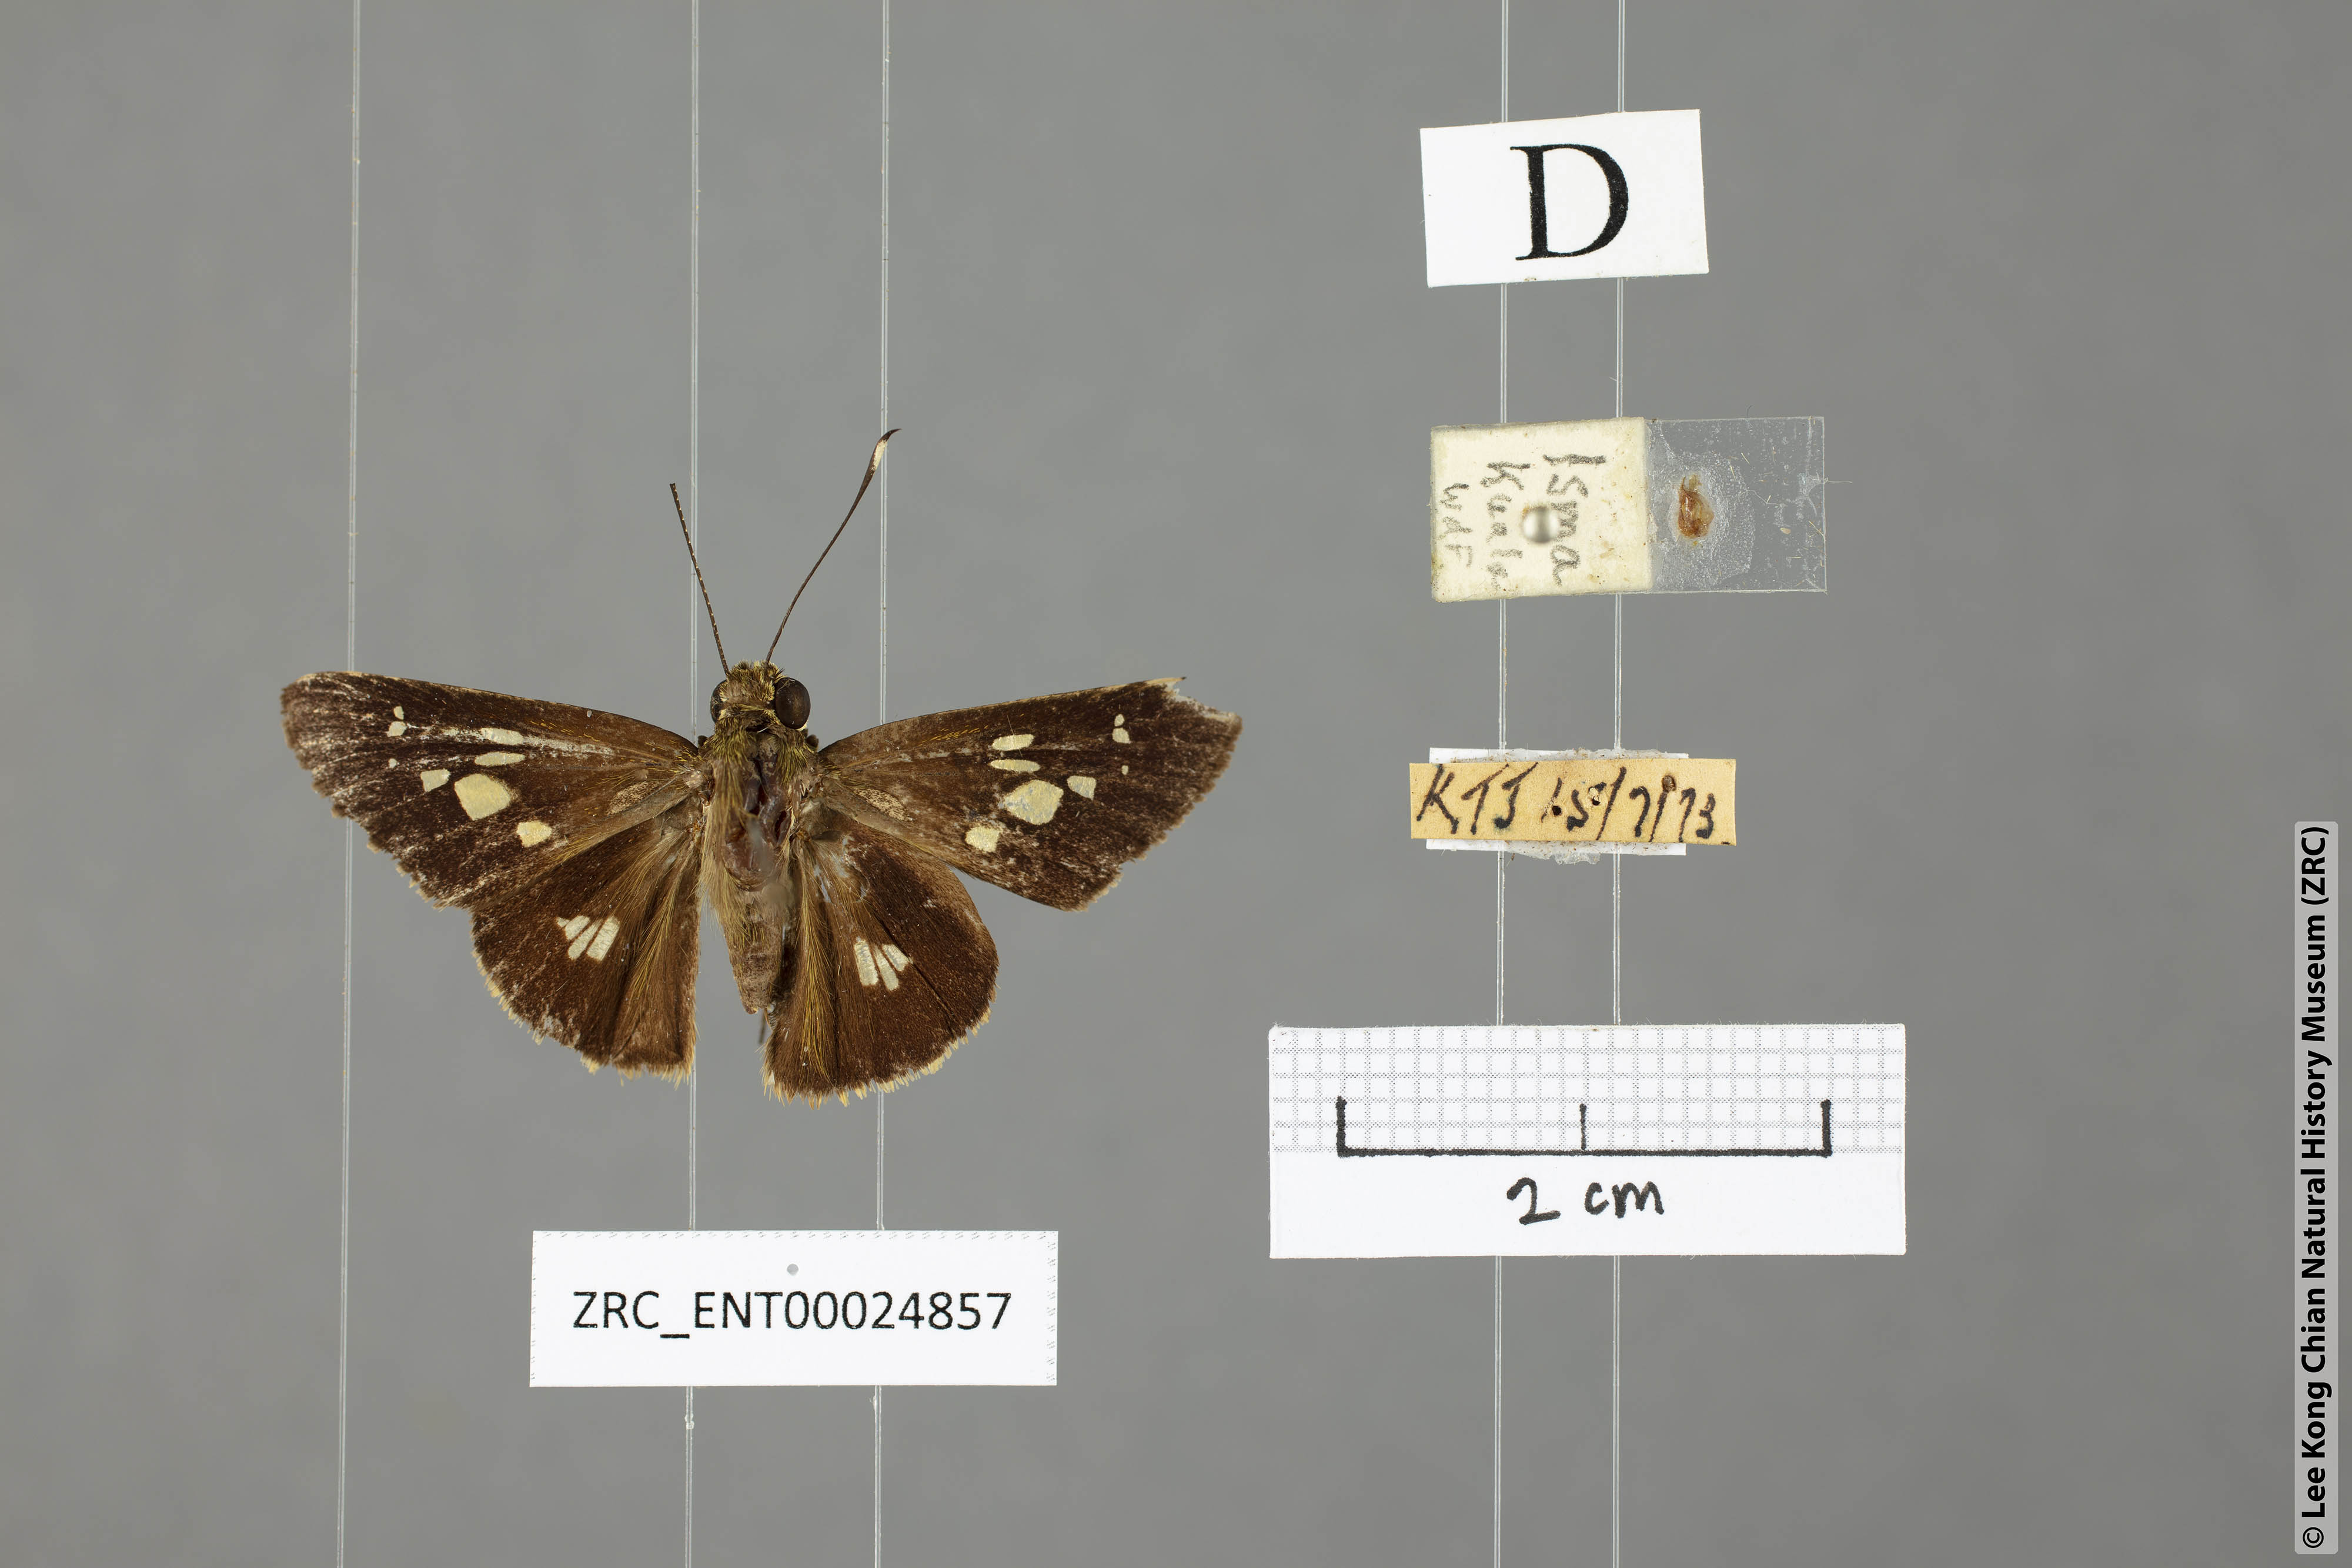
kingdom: Animalia
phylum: Arthropoda
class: Insecta
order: Lepidoptera
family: Hesperiidae
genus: Isma
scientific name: Isma guttulifera
